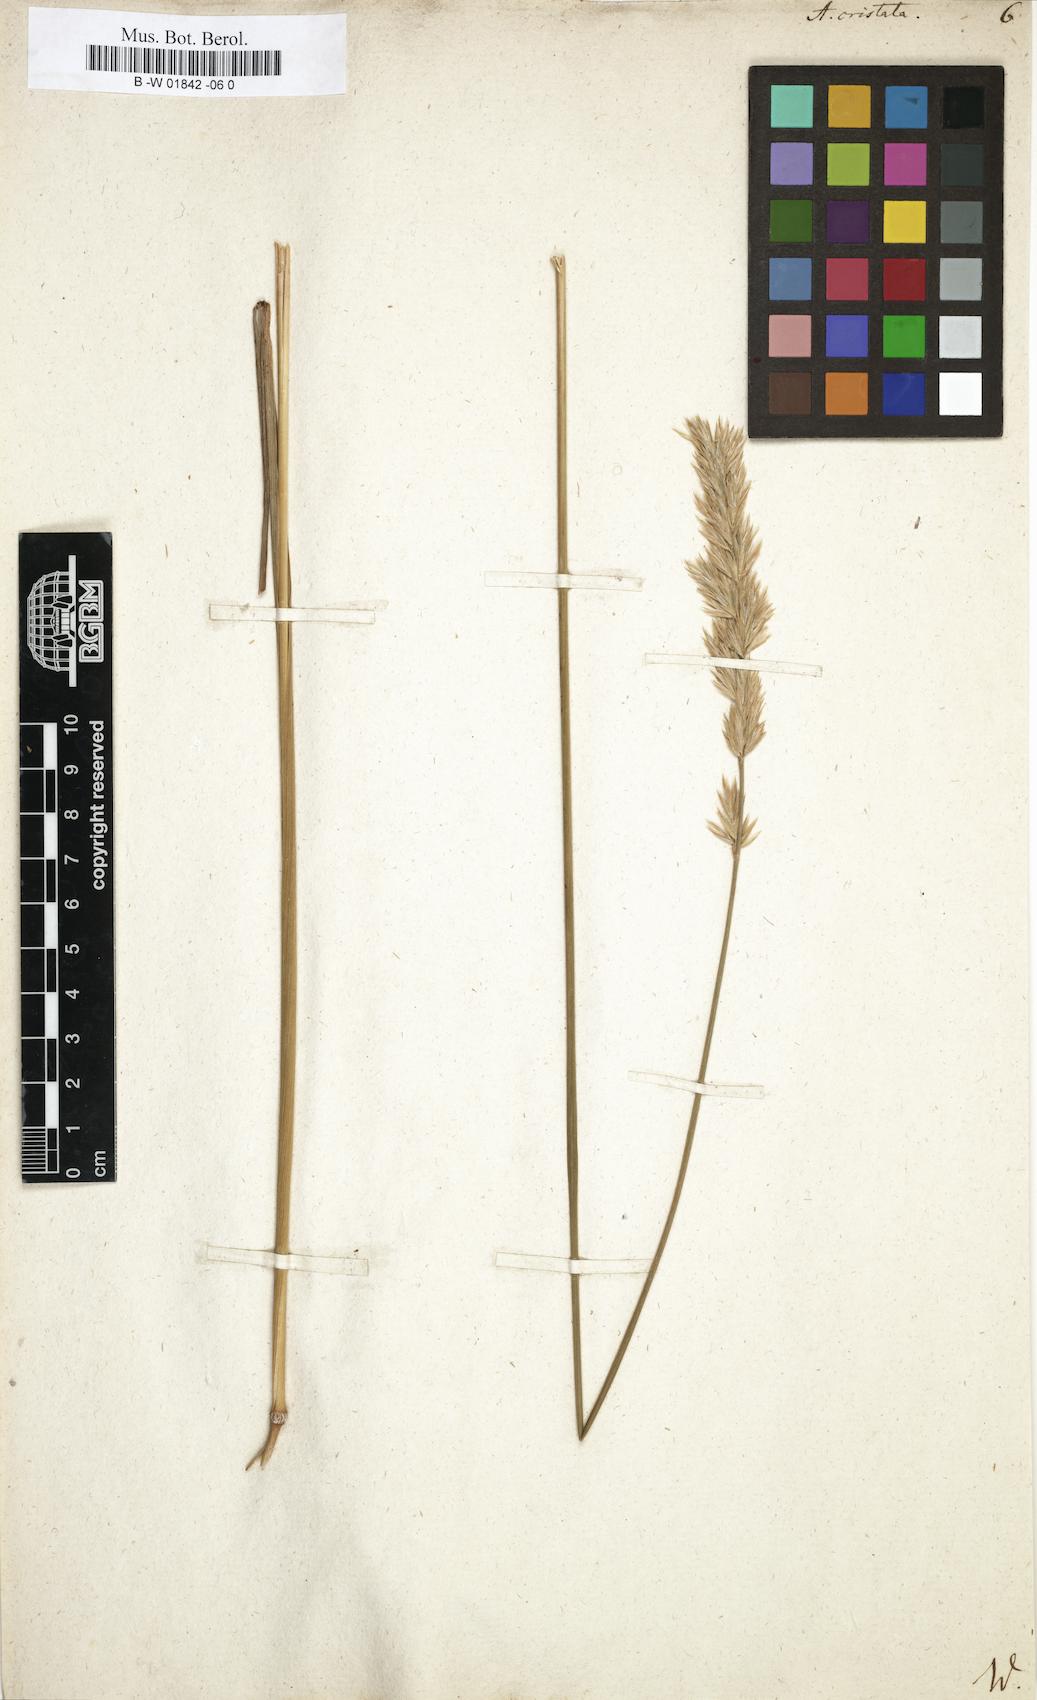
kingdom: Plantae
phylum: Tracheophyta
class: Liliopsida
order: Poales
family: Poaceae
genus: Koeleria
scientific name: Koeleria macrantha
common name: Crested hair-grass
